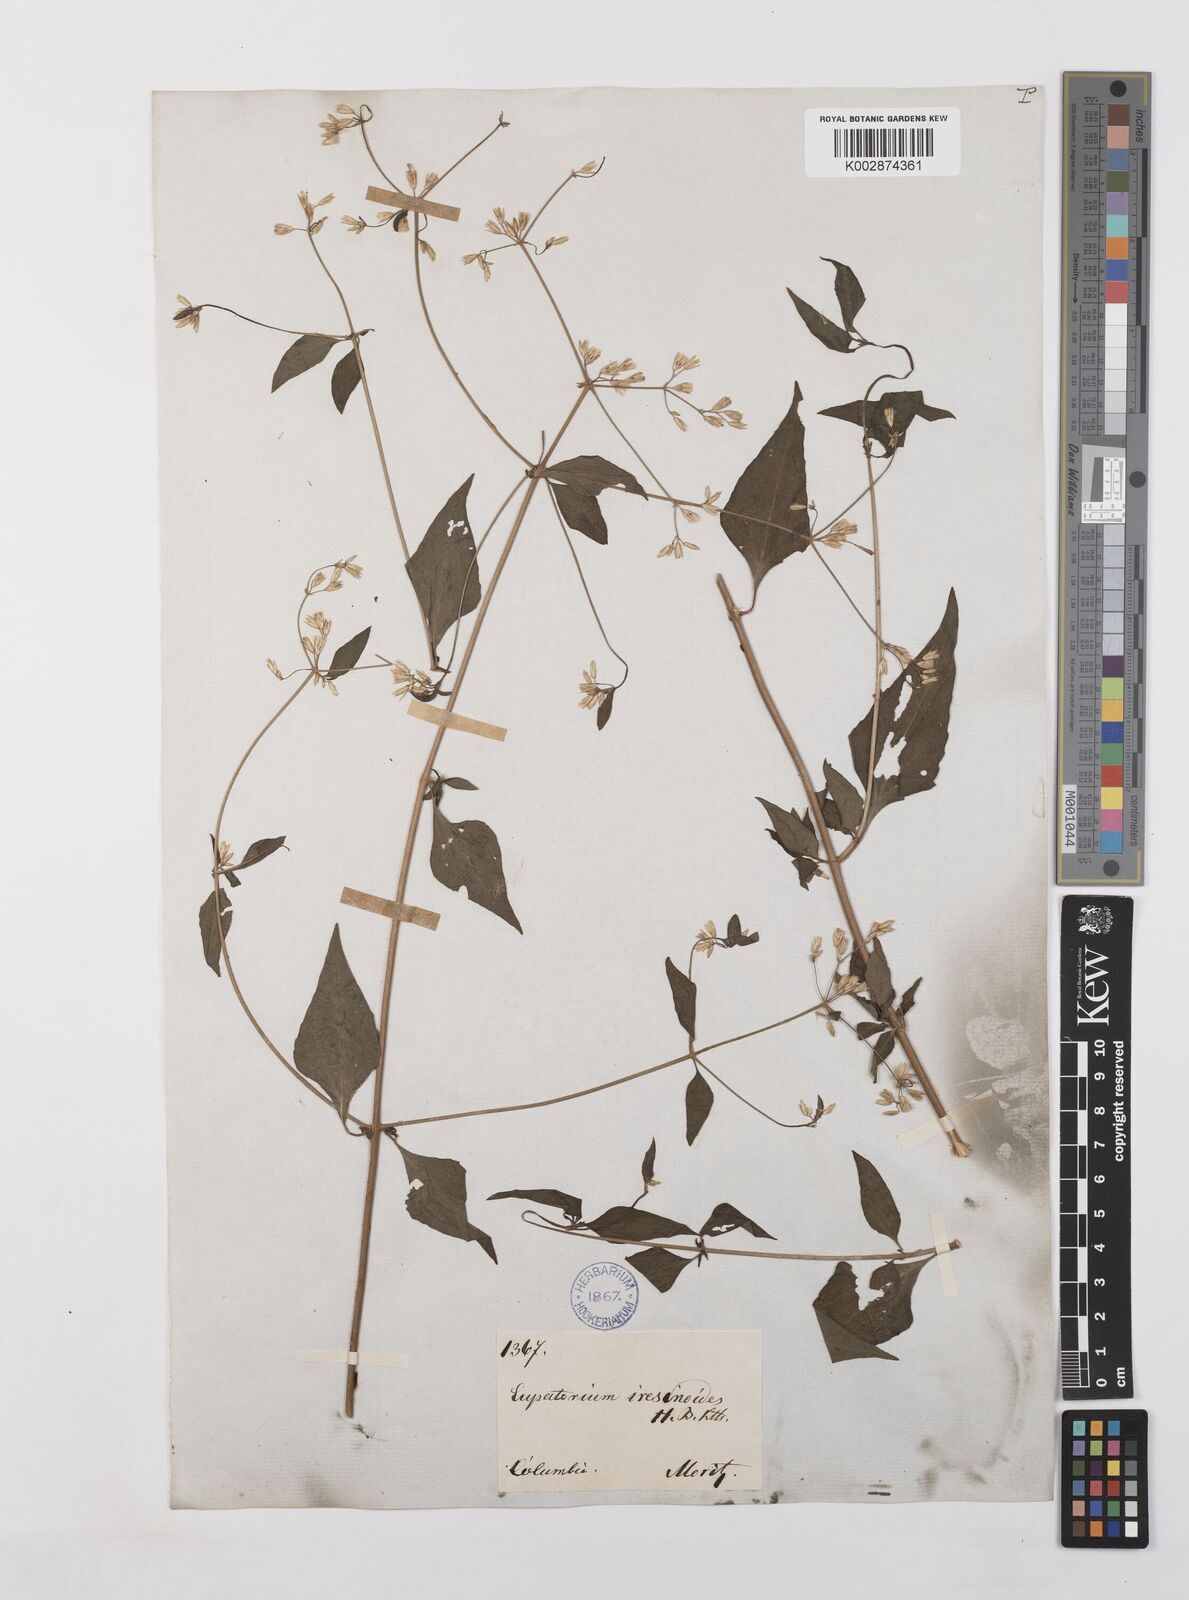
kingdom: Plantae
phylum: Tracheophyta
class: Magnoliopsida
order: Asterales
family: Asteraceae
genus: Condylidium
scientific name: Condylidium iresinoides
